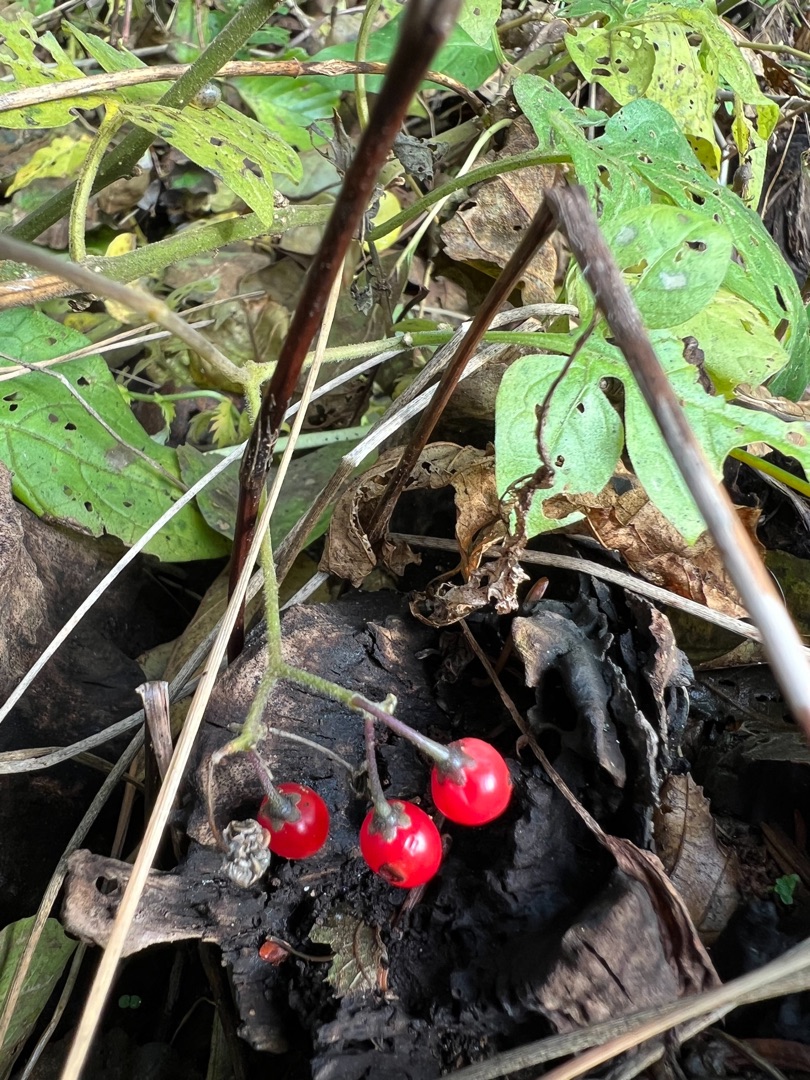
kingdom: Plantae
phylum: Tracheophyta
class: Magnoliopsida
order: Solanales
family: Solanaceae
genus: Solanum
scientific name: Solanum dulcamara
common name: Bittersød natskygge
